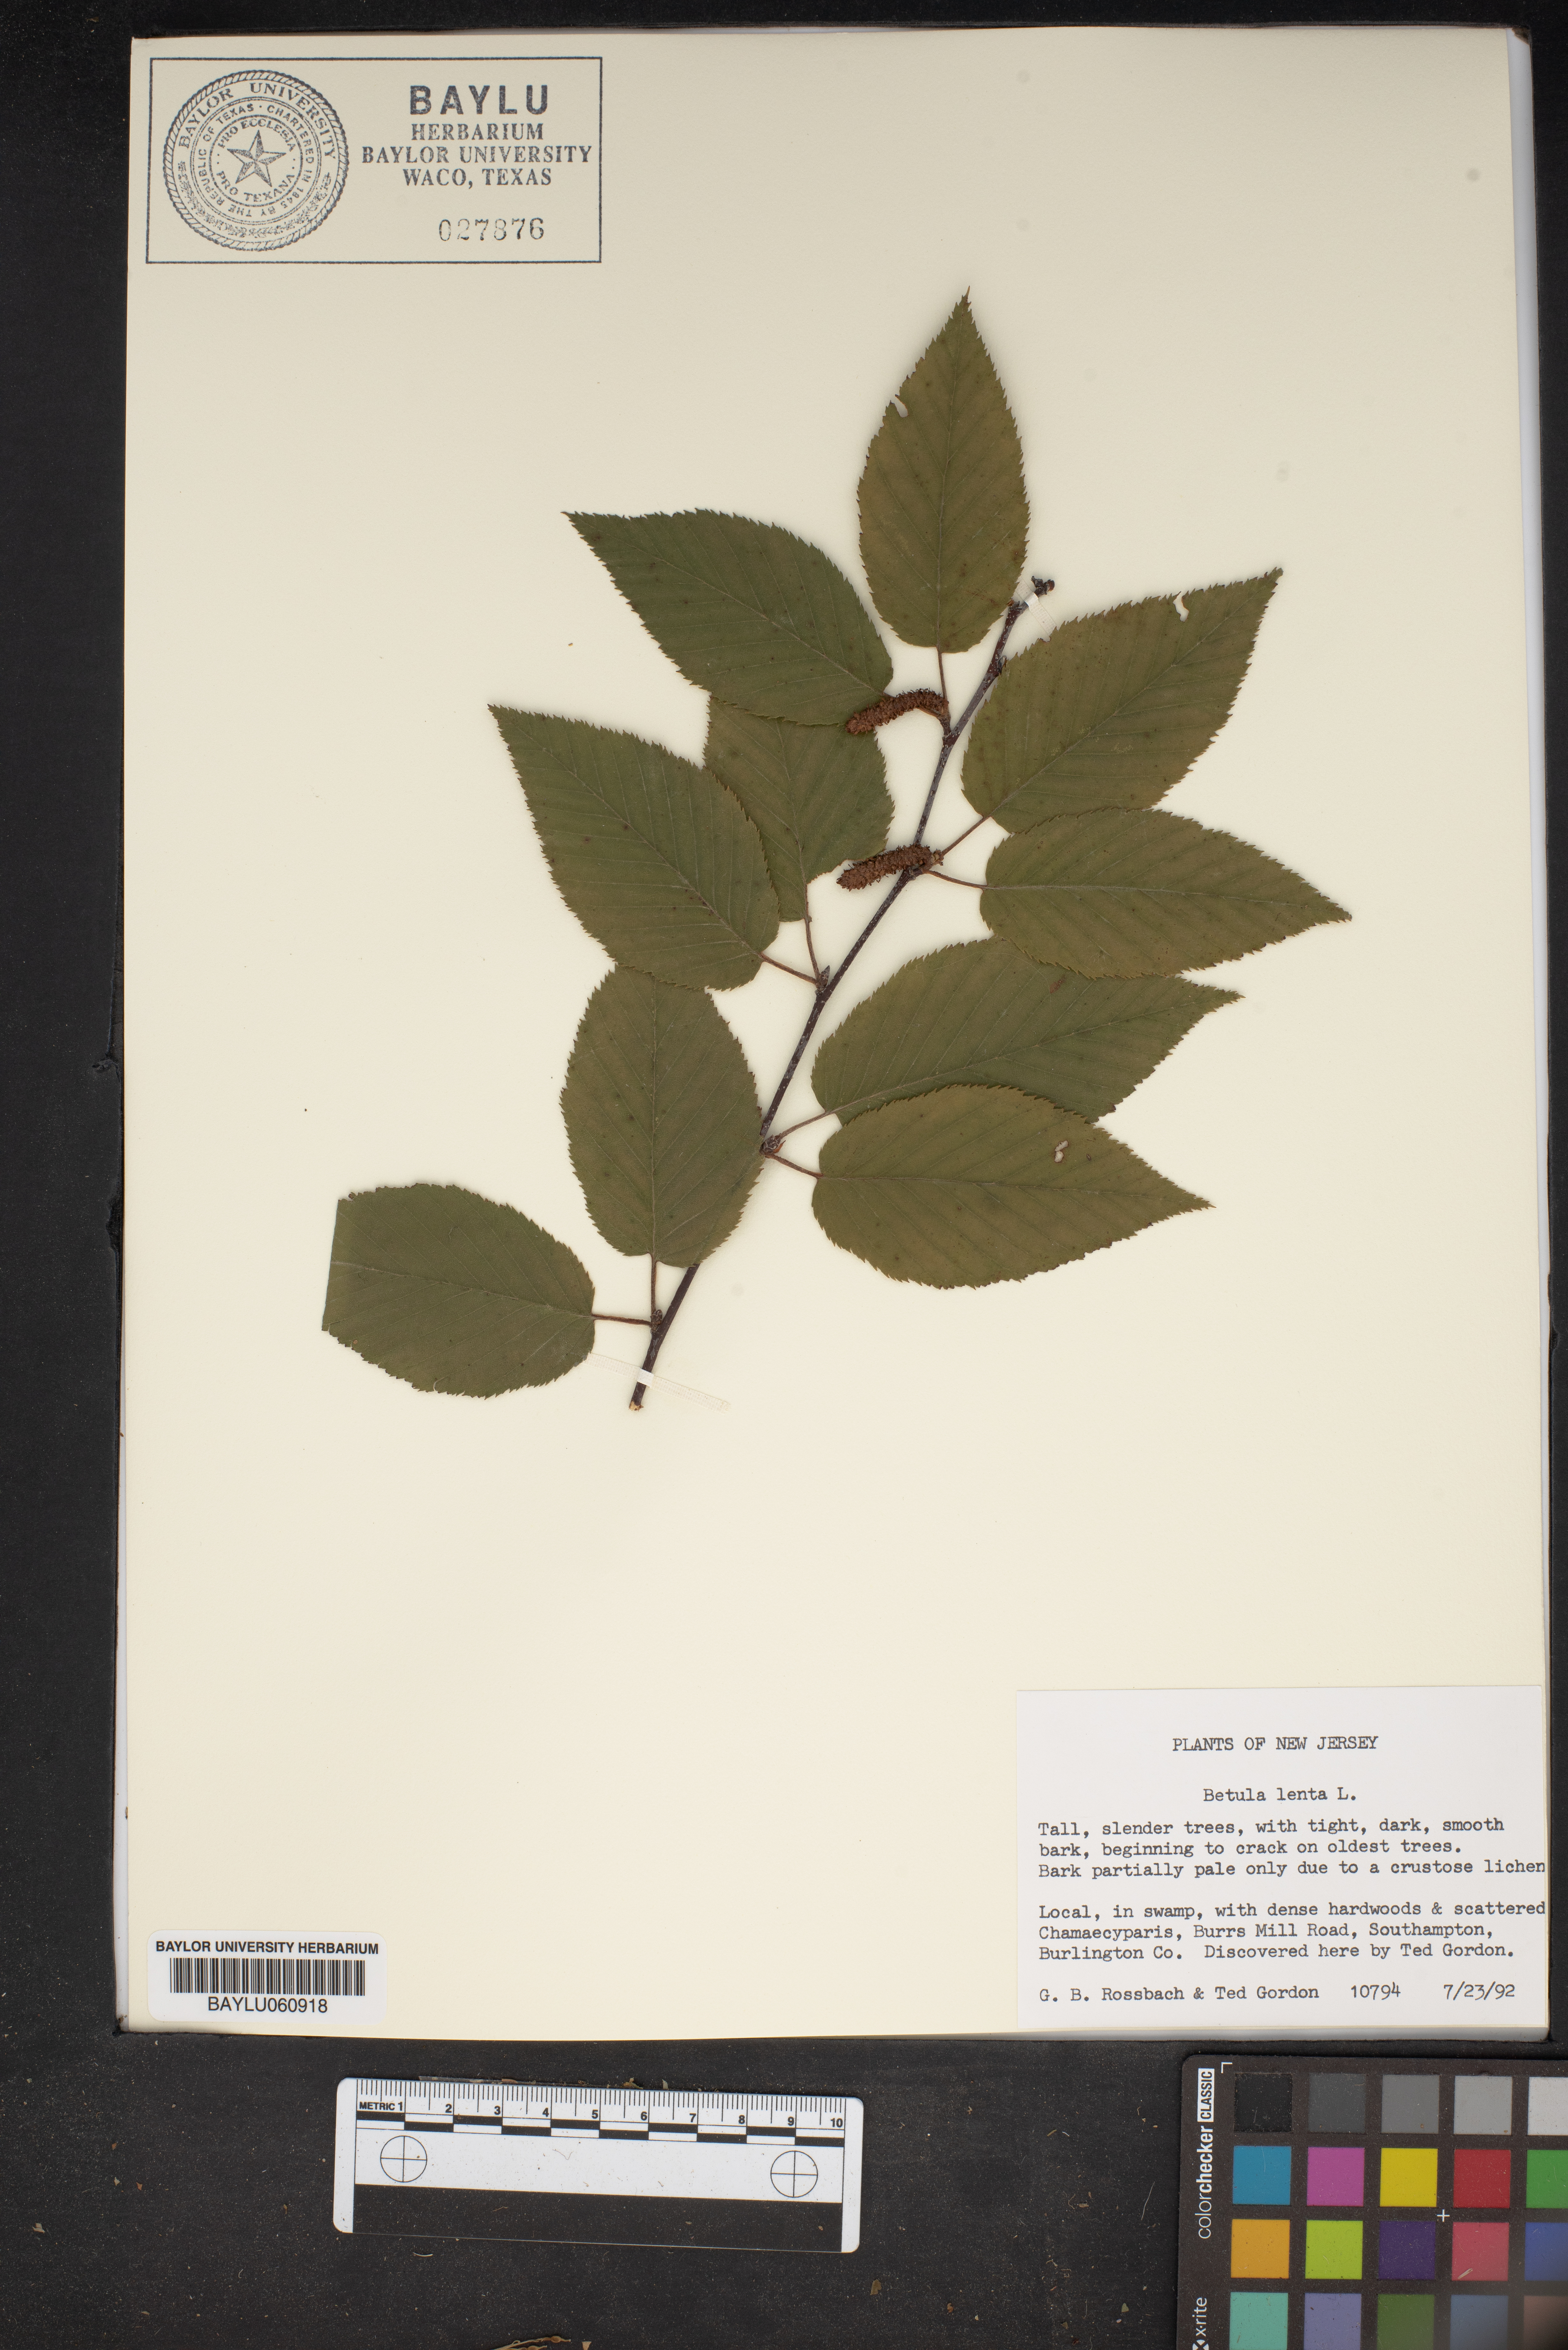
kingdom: Plantae
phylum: Tracheophyta
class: Magnoliopsida
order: Fagales
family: Betulaceae
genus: Betula
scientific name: Betula lenta
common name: Black birch
